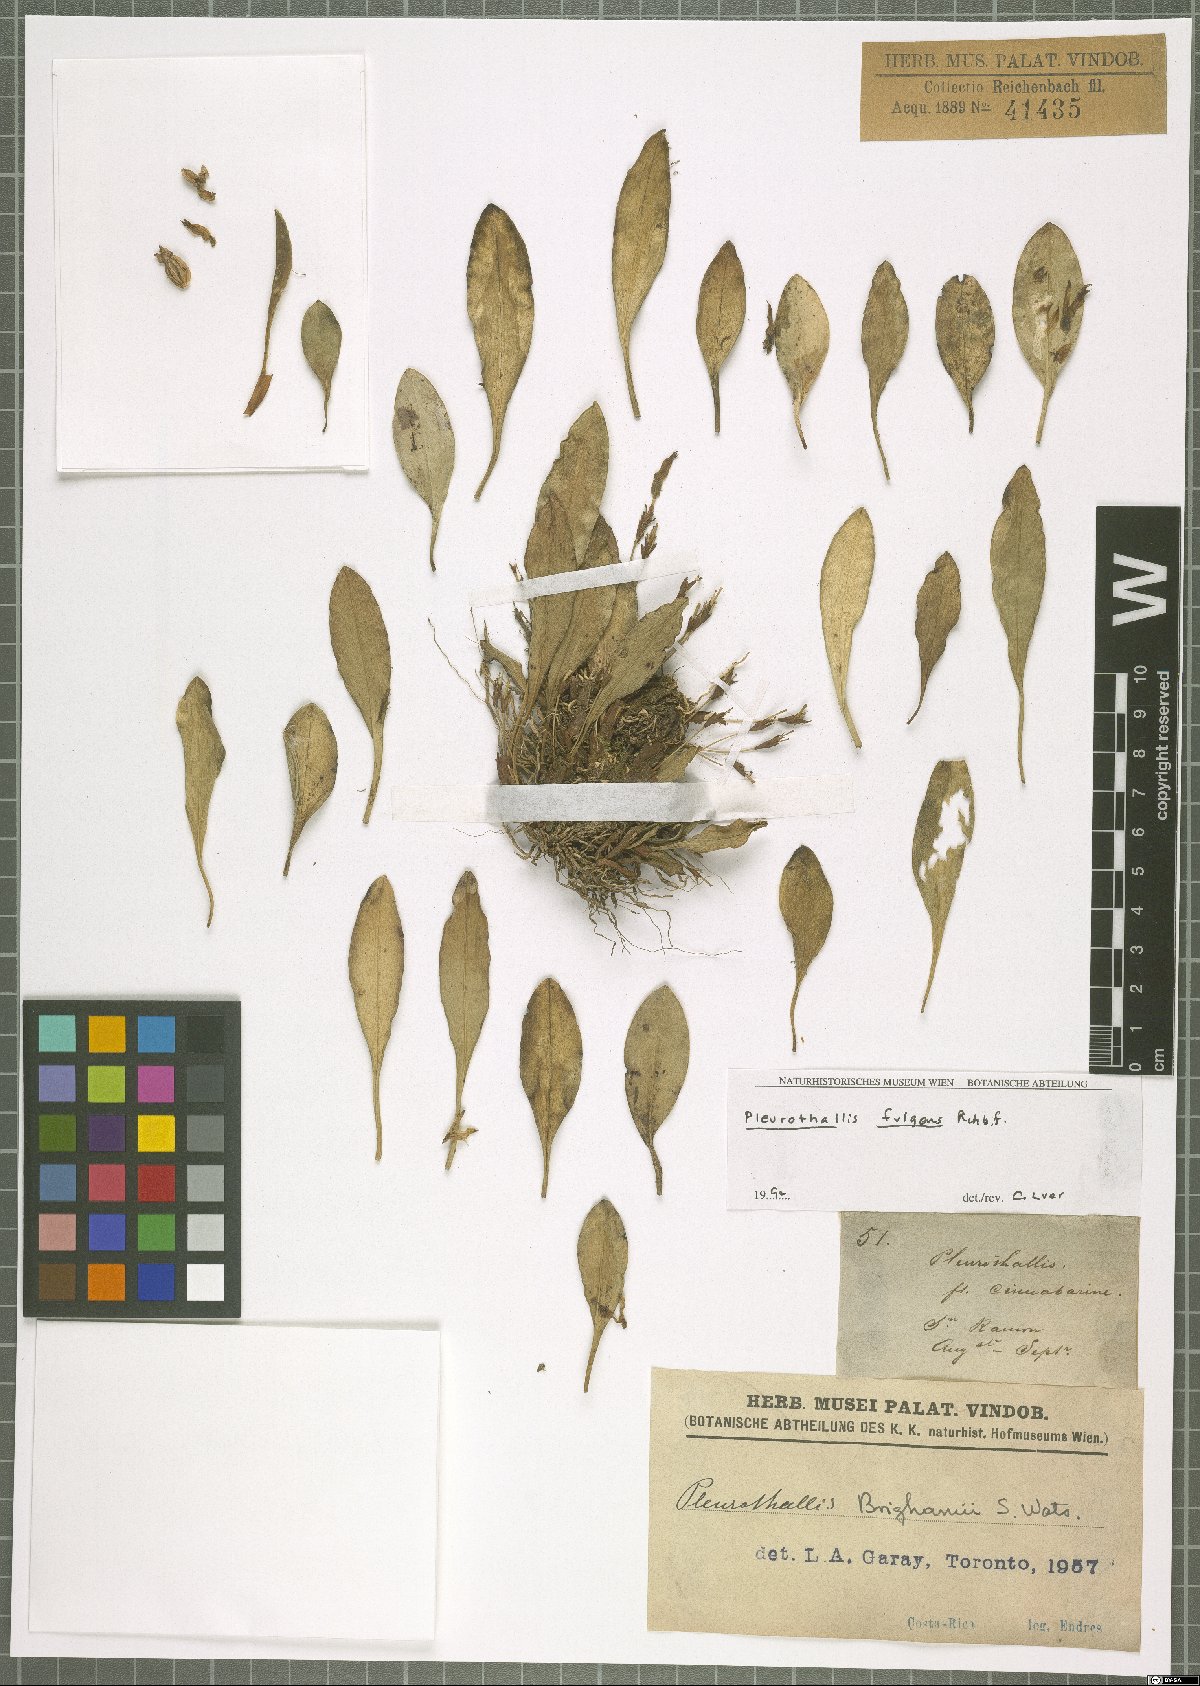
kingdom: Plantae
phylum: Tracheophyta
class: Liliopsida
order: Asparagales
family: Orchidaceae
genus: Specklinia
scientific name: Specklinia fulgens
